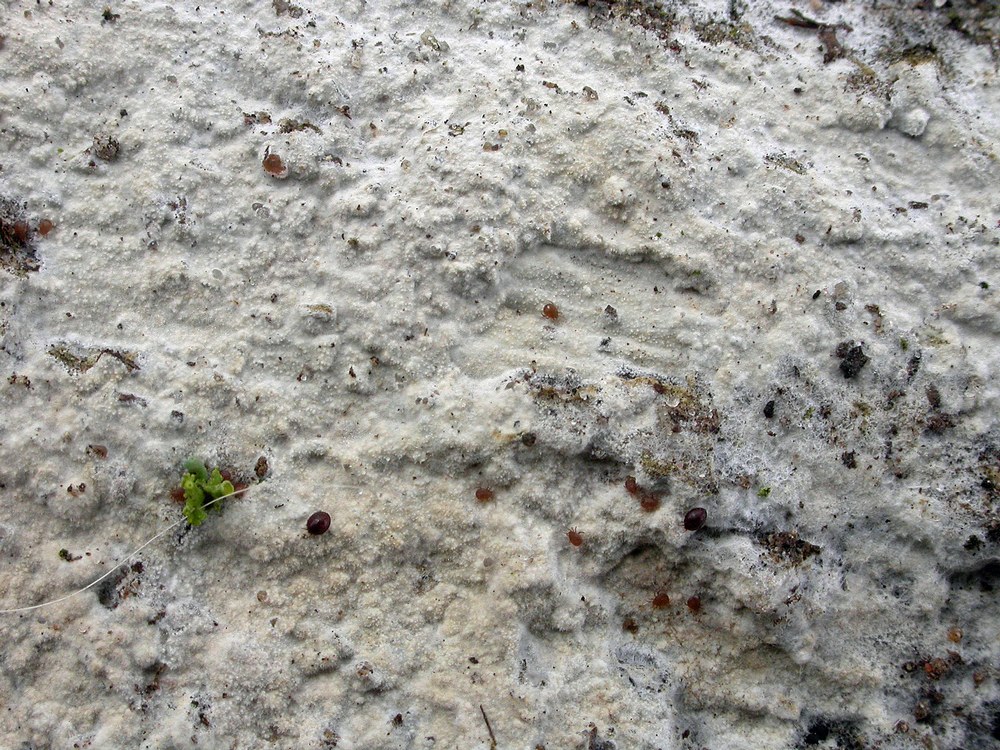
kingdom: Fungi
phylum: Basidiomycota
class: Agaricomycetes
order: Polyporales
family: Hyphodermataceae
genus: Hyphoderma
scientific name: Hyphoderma setigerum
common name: håret kalkskind
